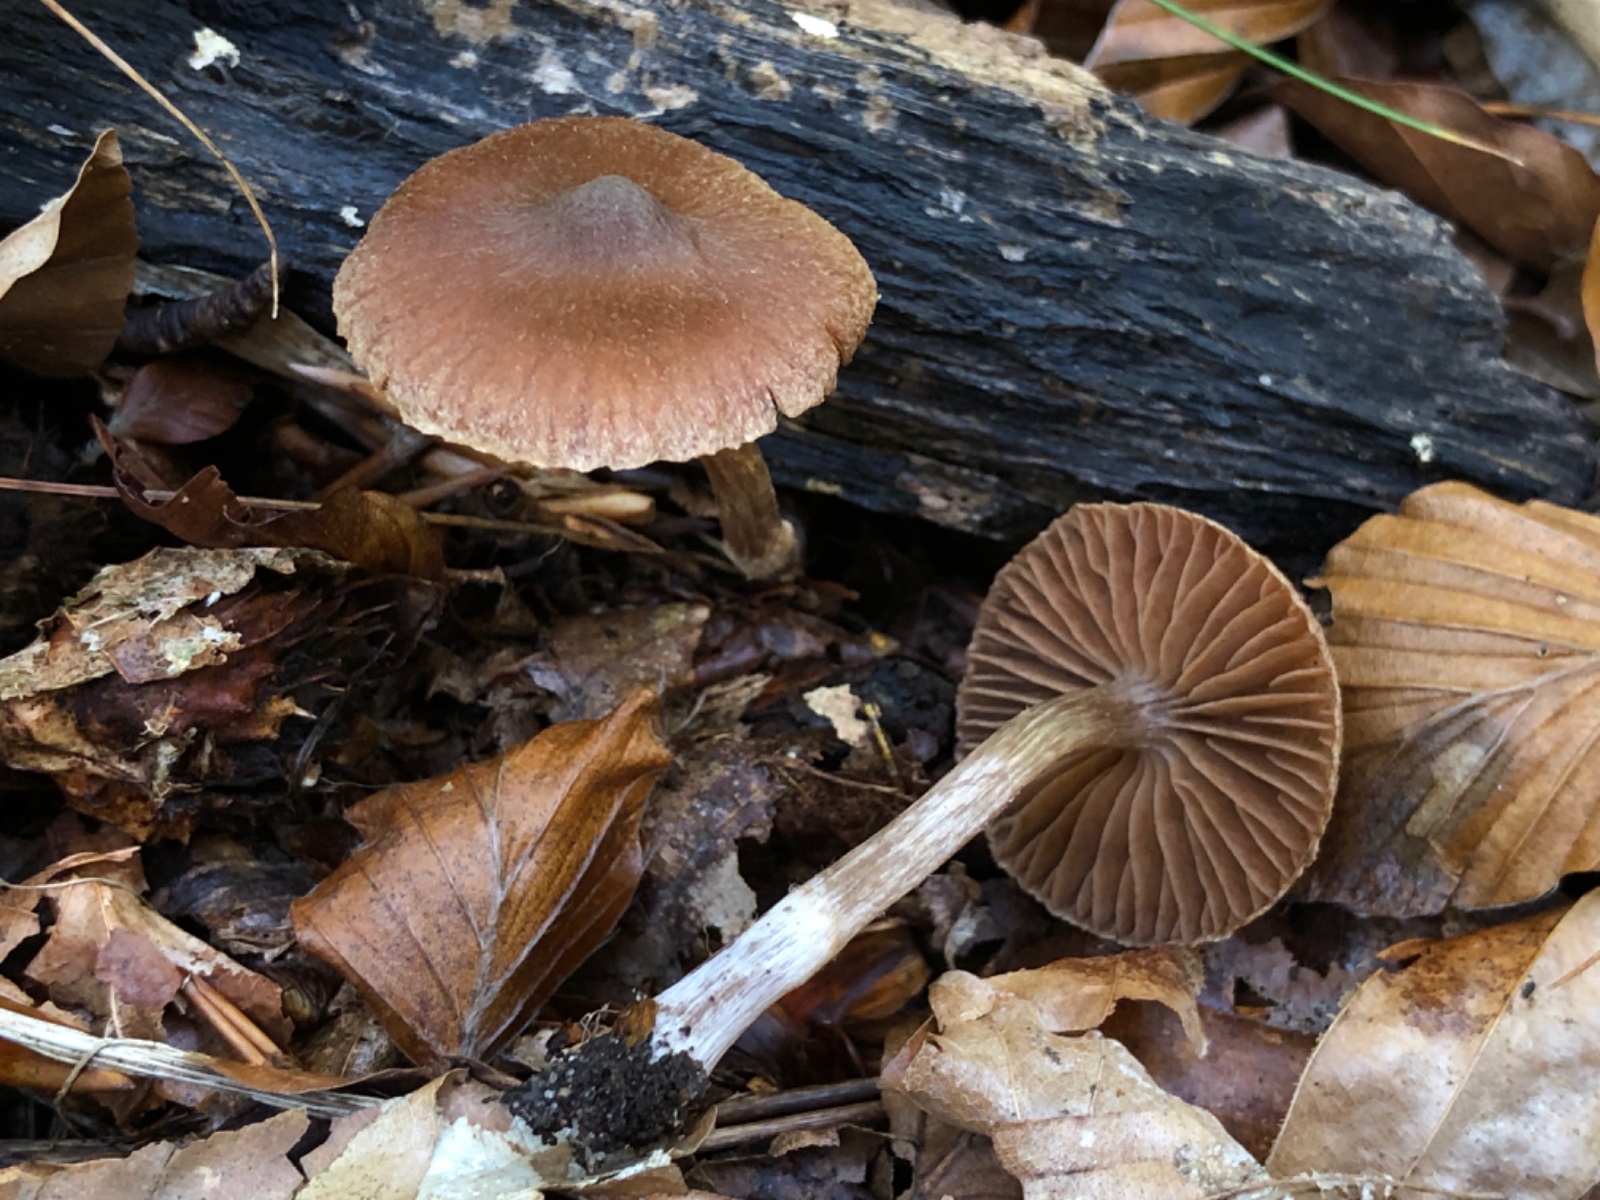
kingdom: Fungi
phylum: Basidiomycota
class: Agaricomycetes
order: Agaricales
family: Cortinariaceae
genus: Cortinarius
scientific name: Cortinarius hirtus
